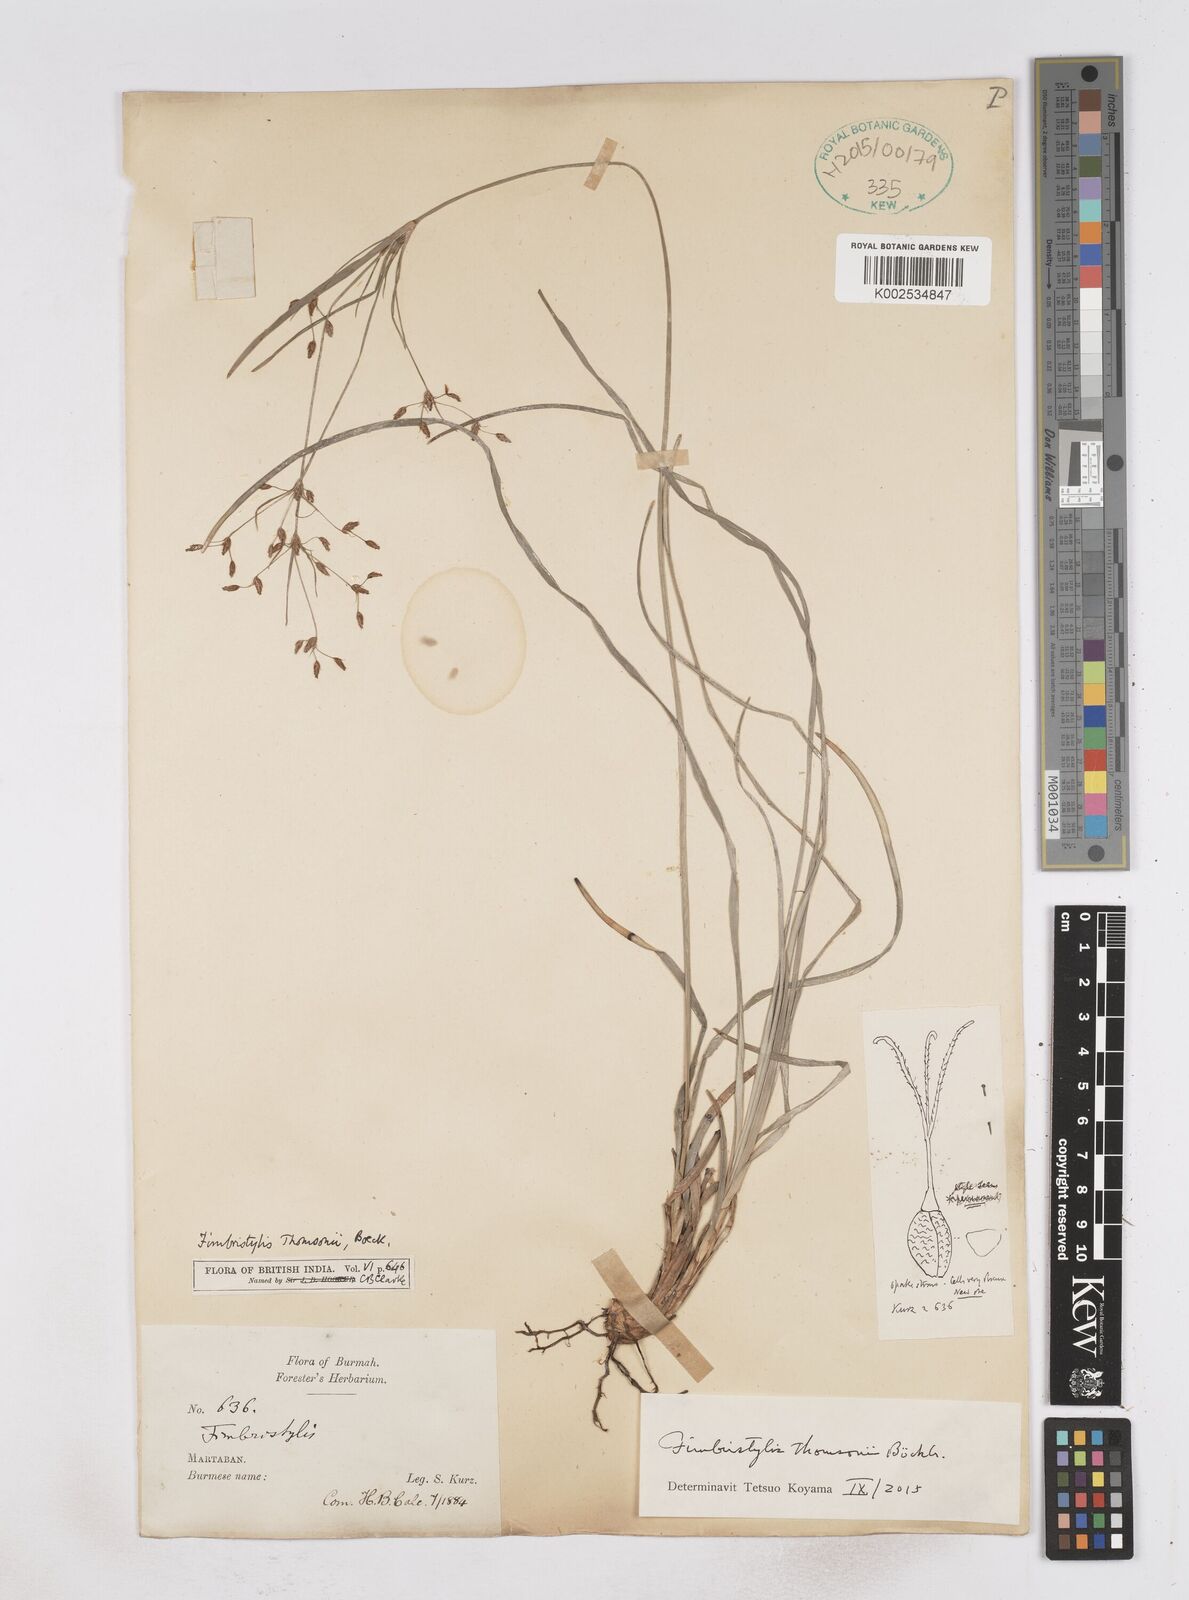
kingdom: Plantae
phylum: Tracheophyta
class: Liliopsida
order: Poales
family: Cyperaceae
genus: Fimbristylis
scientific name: Fimbristylis thomsonii
